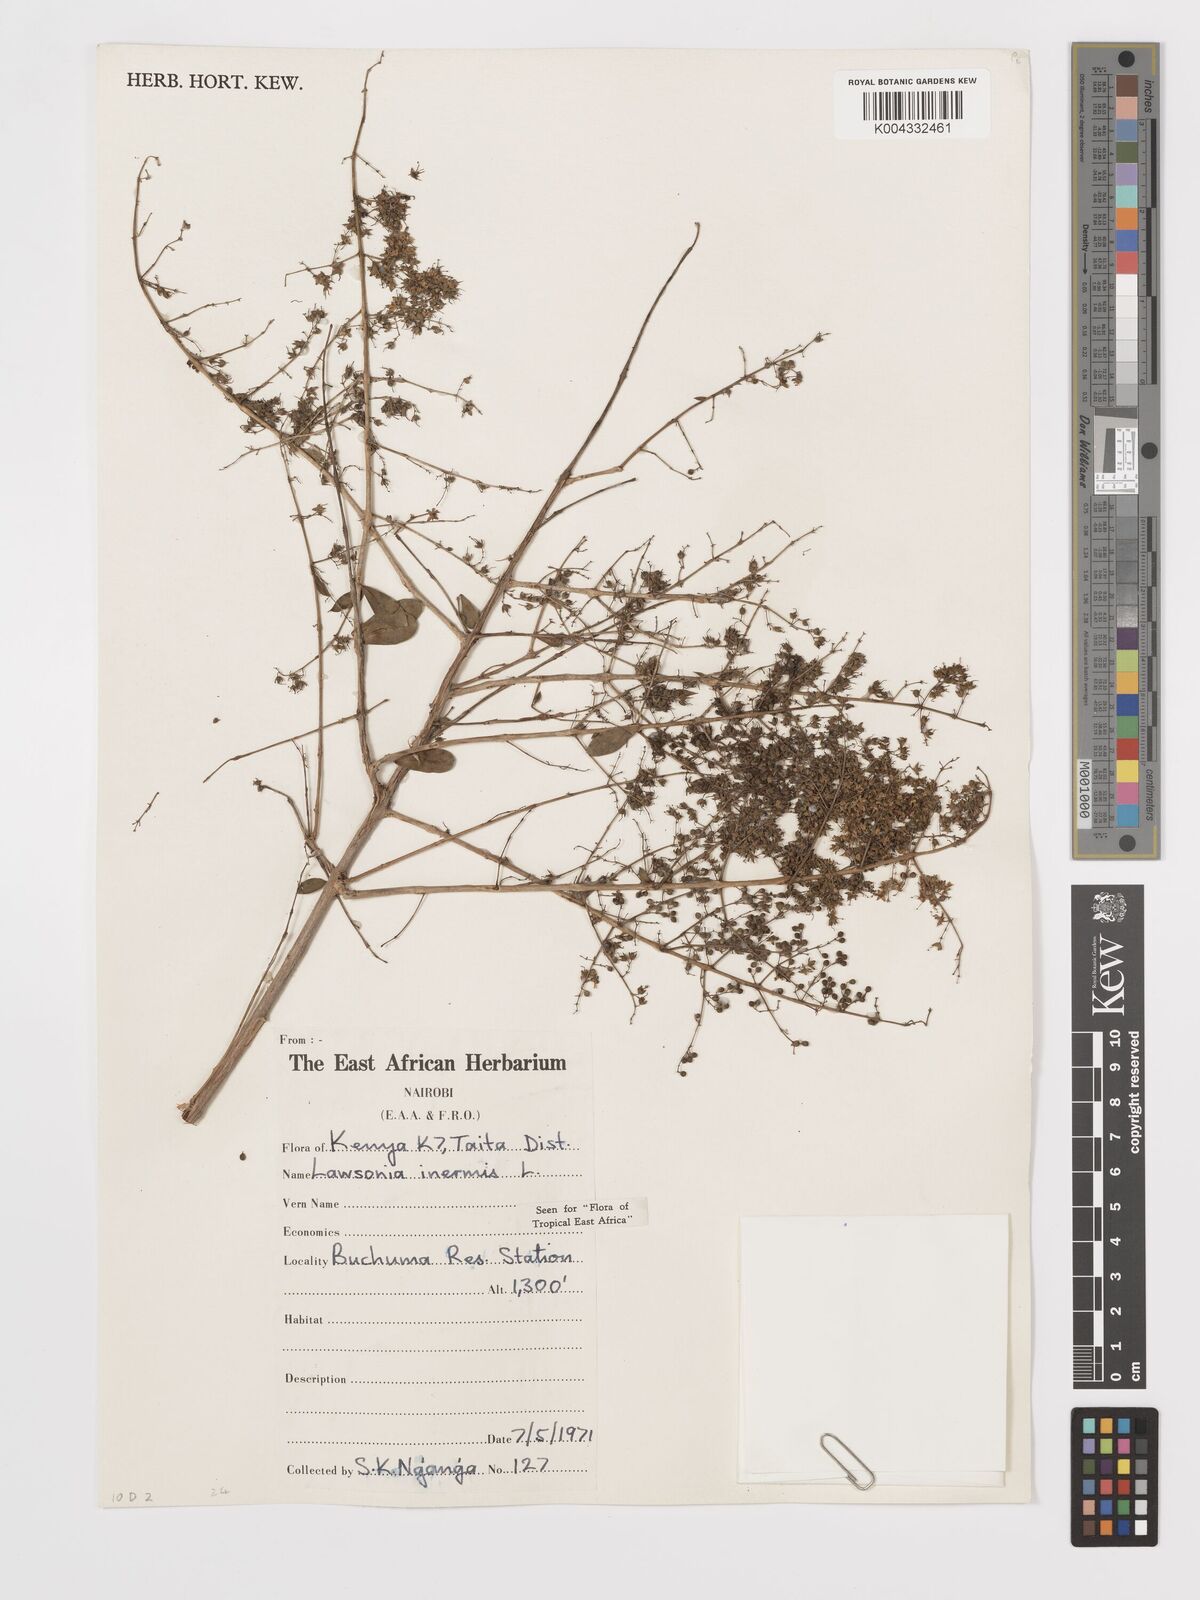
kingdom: Plantae
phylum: Tracheophyta
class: Magnoliopsida
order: Myrtales
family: Lythraceae
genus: Lawsonia
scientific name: Lawsonia inermis
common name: Henna
